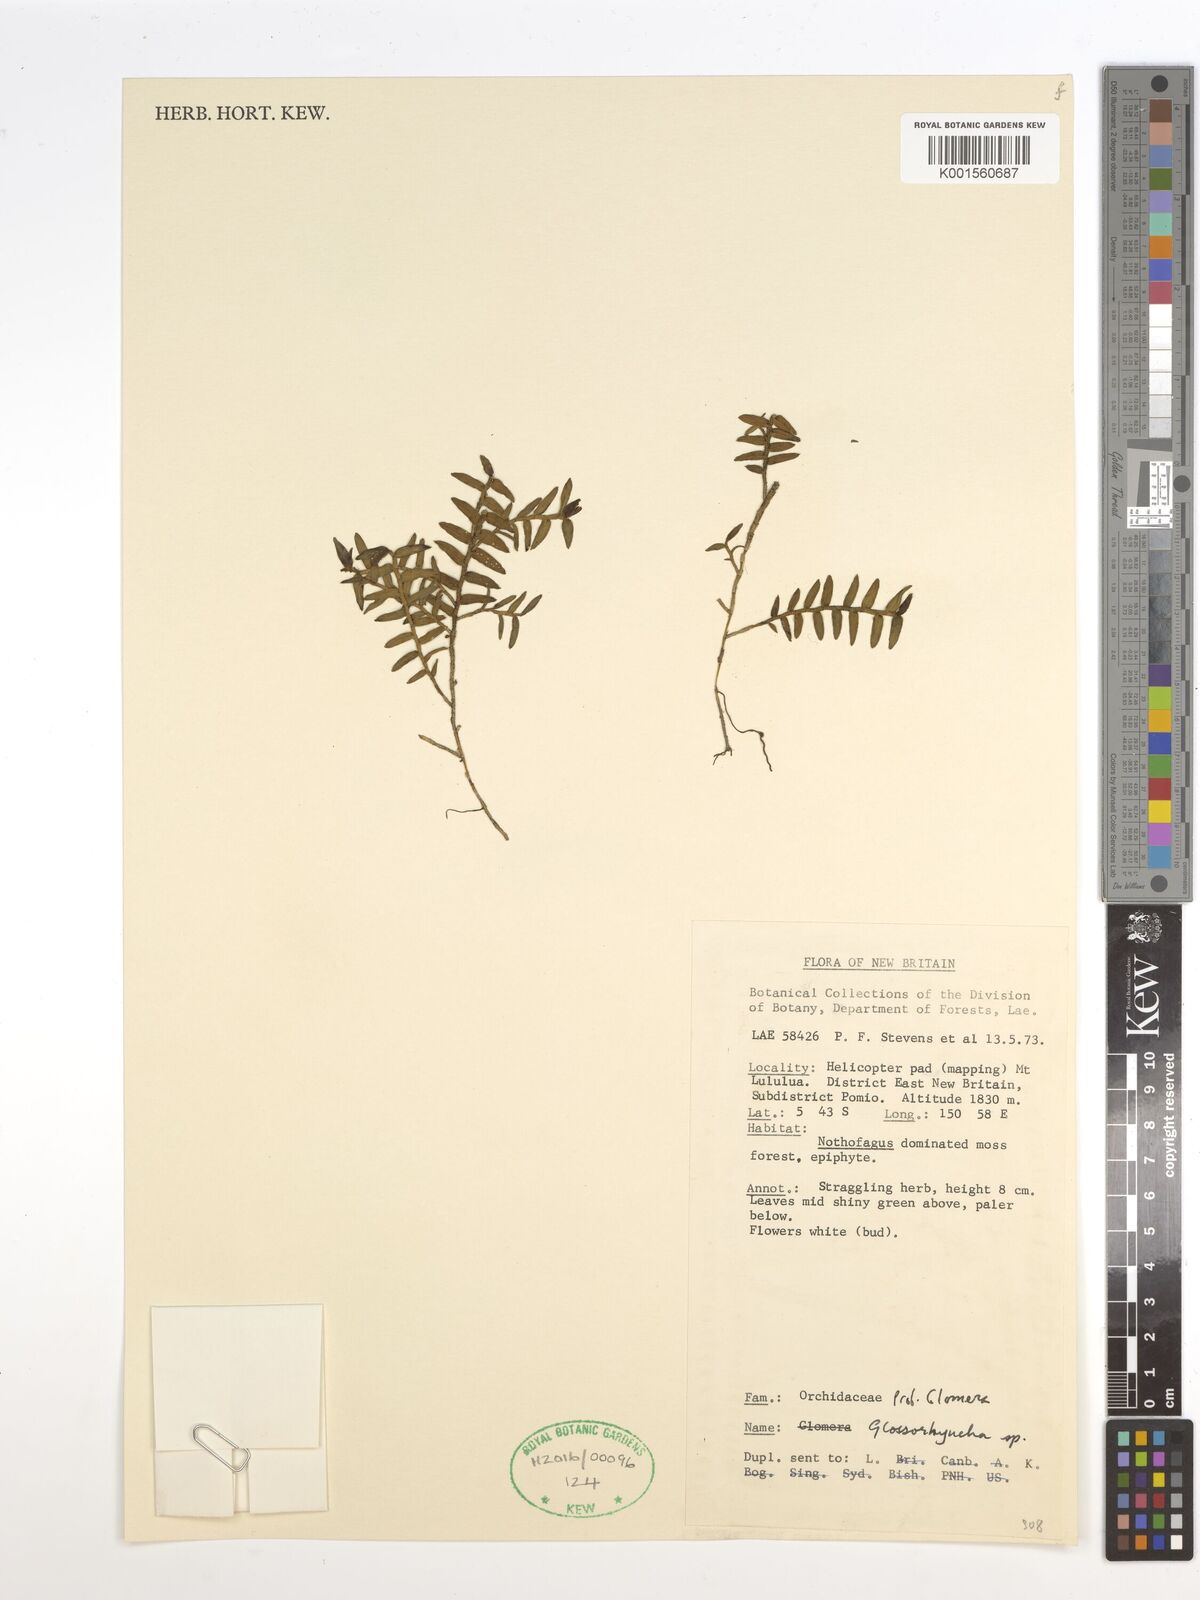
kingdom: Plantae
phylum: Tracheophyta
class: Liliopsida
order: Asparagales
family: Orchidaceae
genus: Glomera
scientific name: Glomera
